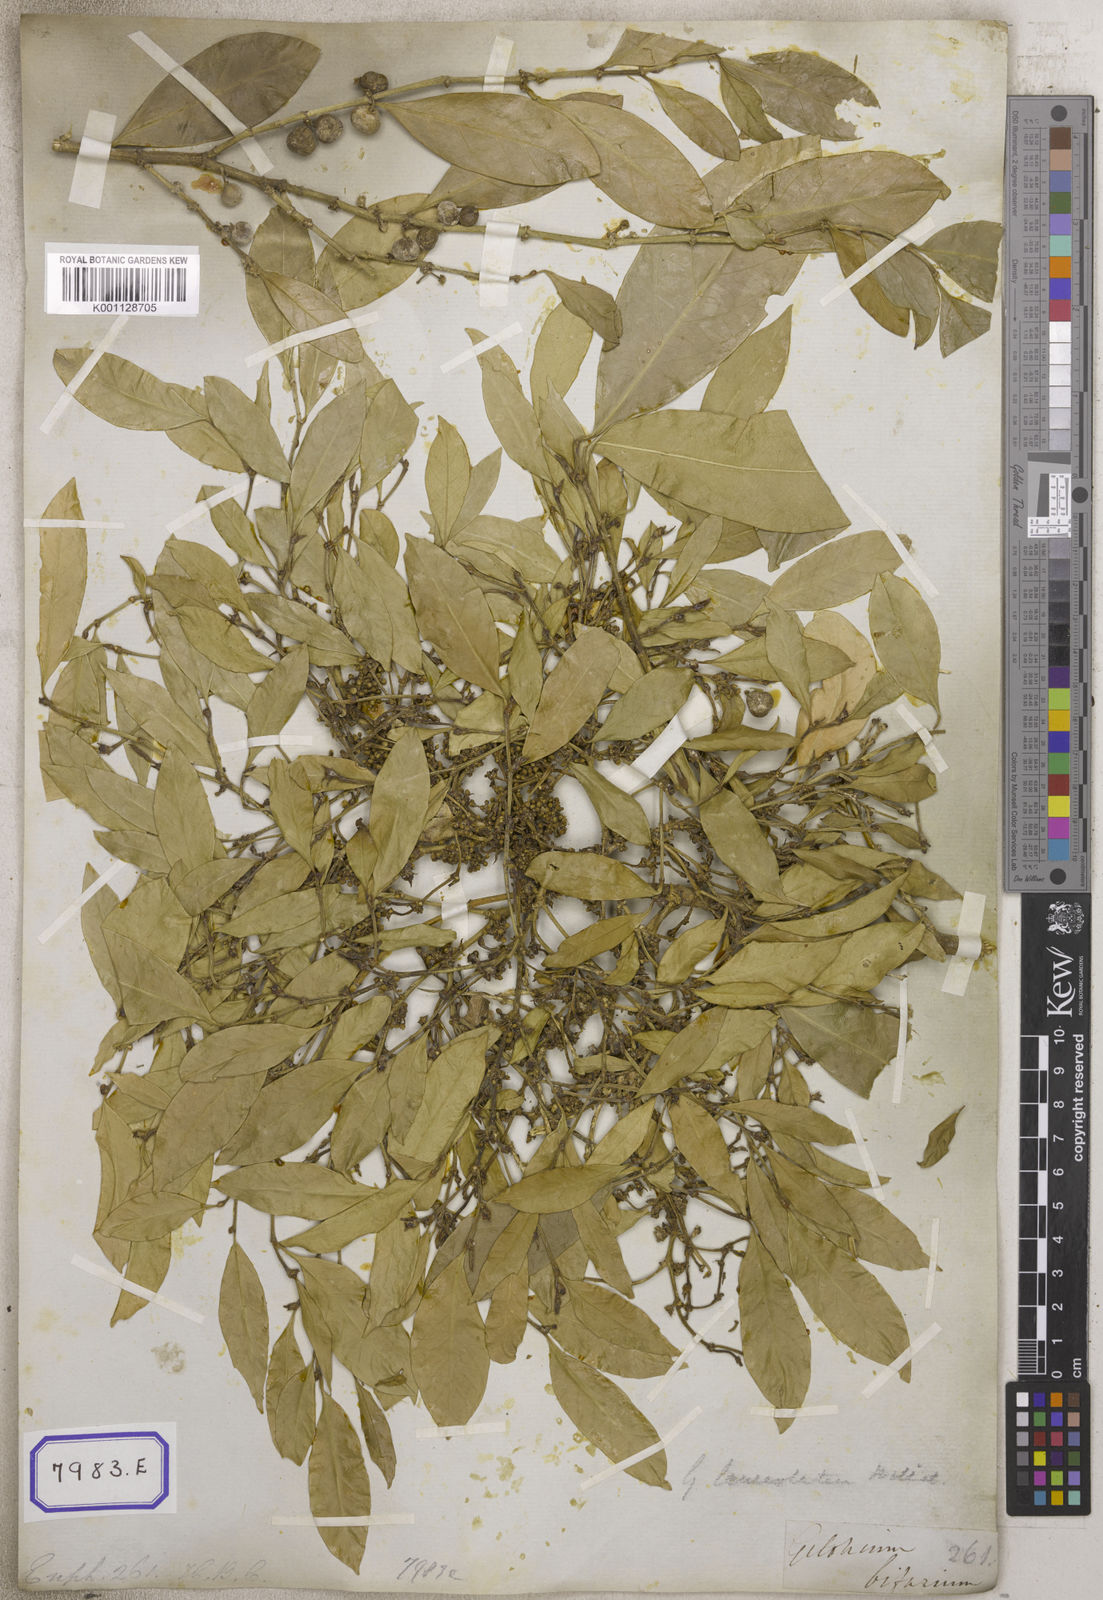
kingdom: Plantae
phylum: Tracheophyta
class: Magnoliopsida
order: Malpighiales
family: Euphorbiaceae
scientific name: Euphorbiaceae
